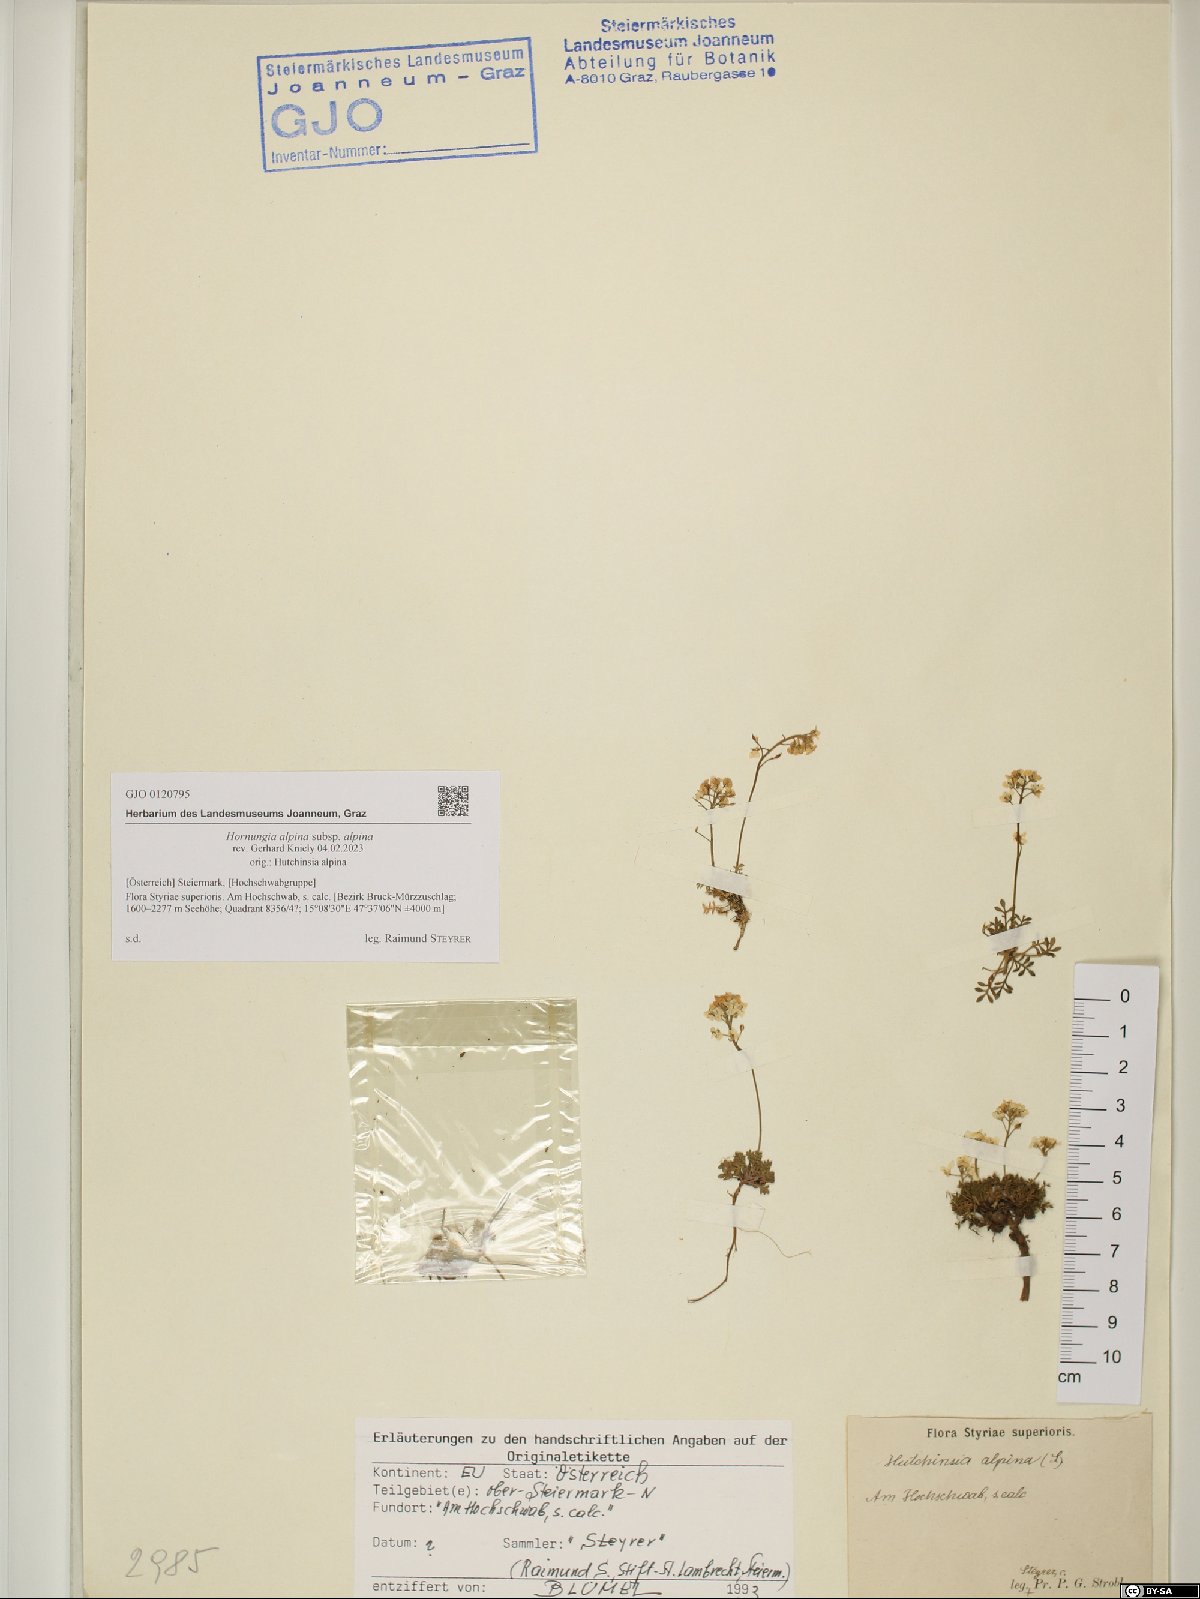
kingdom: Plantae
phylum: Tracheophyta
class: Magnoliopsida
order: Brassicales
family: Brassicaceae
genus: Hornungia
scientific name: Hornungia alpina
